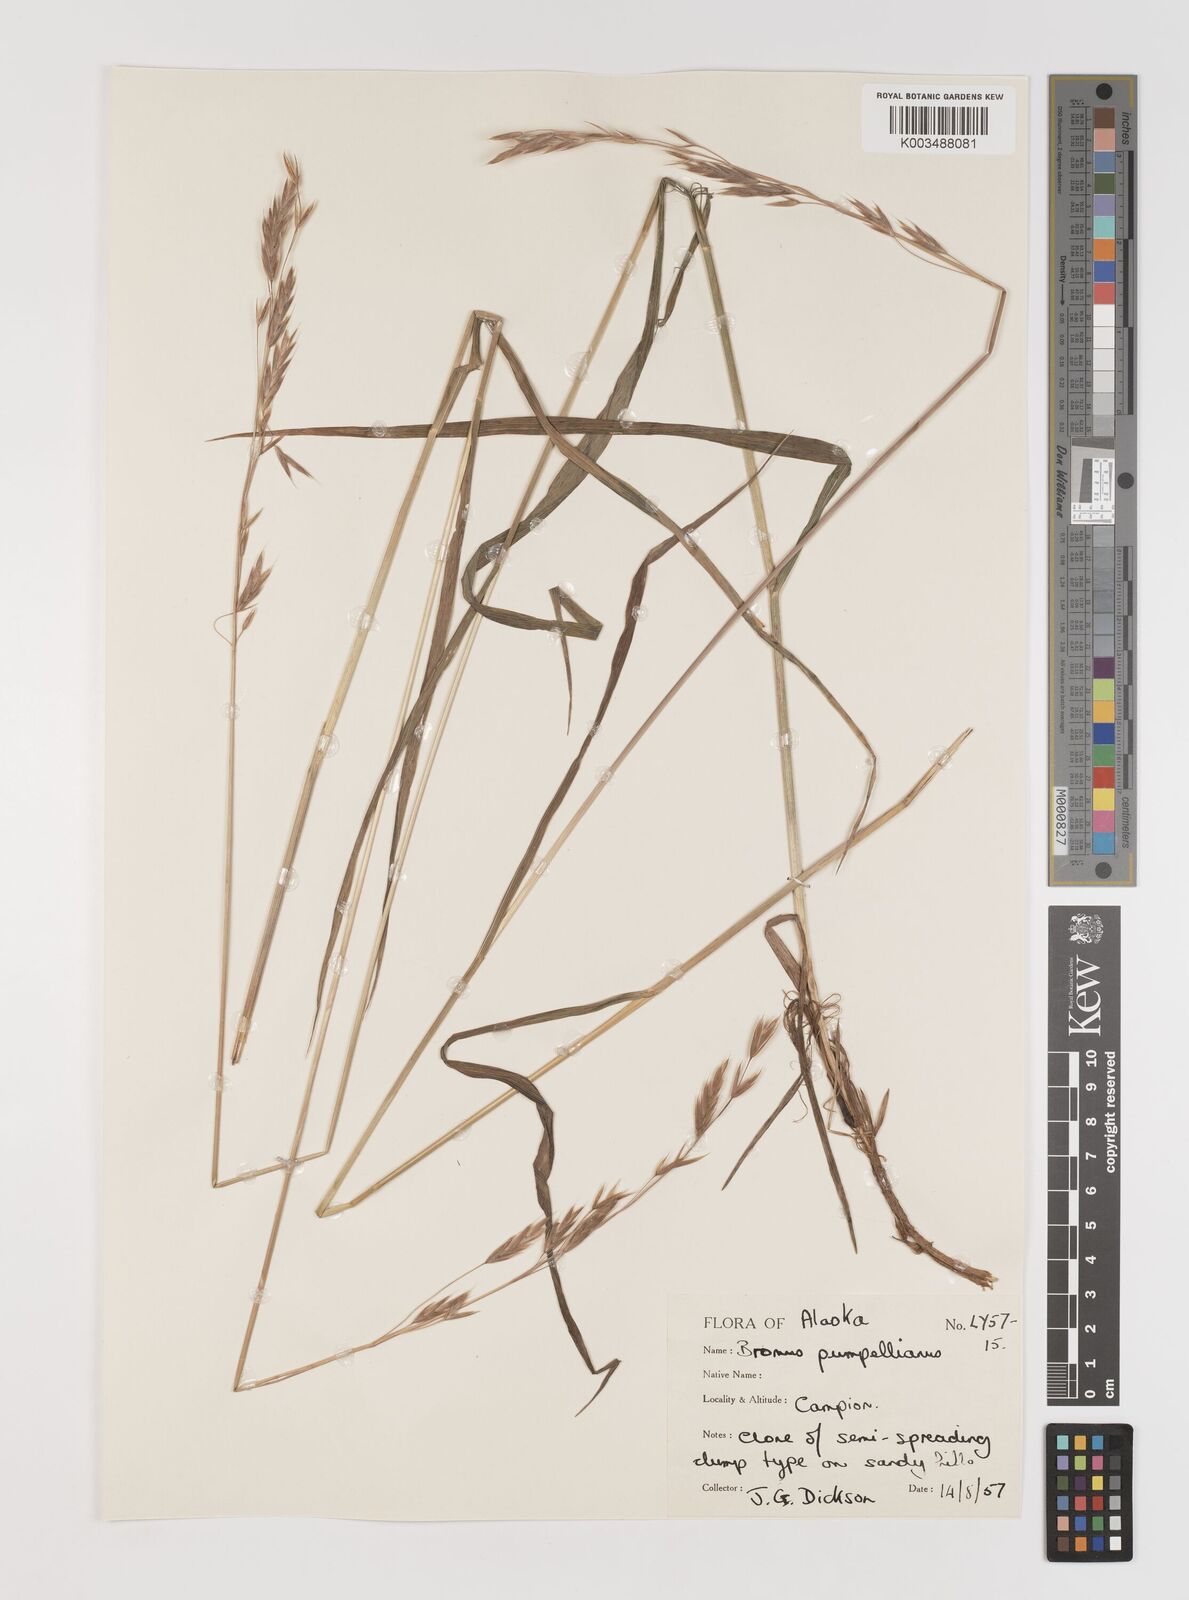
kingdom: Plantae
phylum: Tracheophyta
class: Liliopsida
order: Poales
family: Poaceae
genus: Bromus
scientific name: Bromus pumpellianus
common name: Pumpelly's brome
